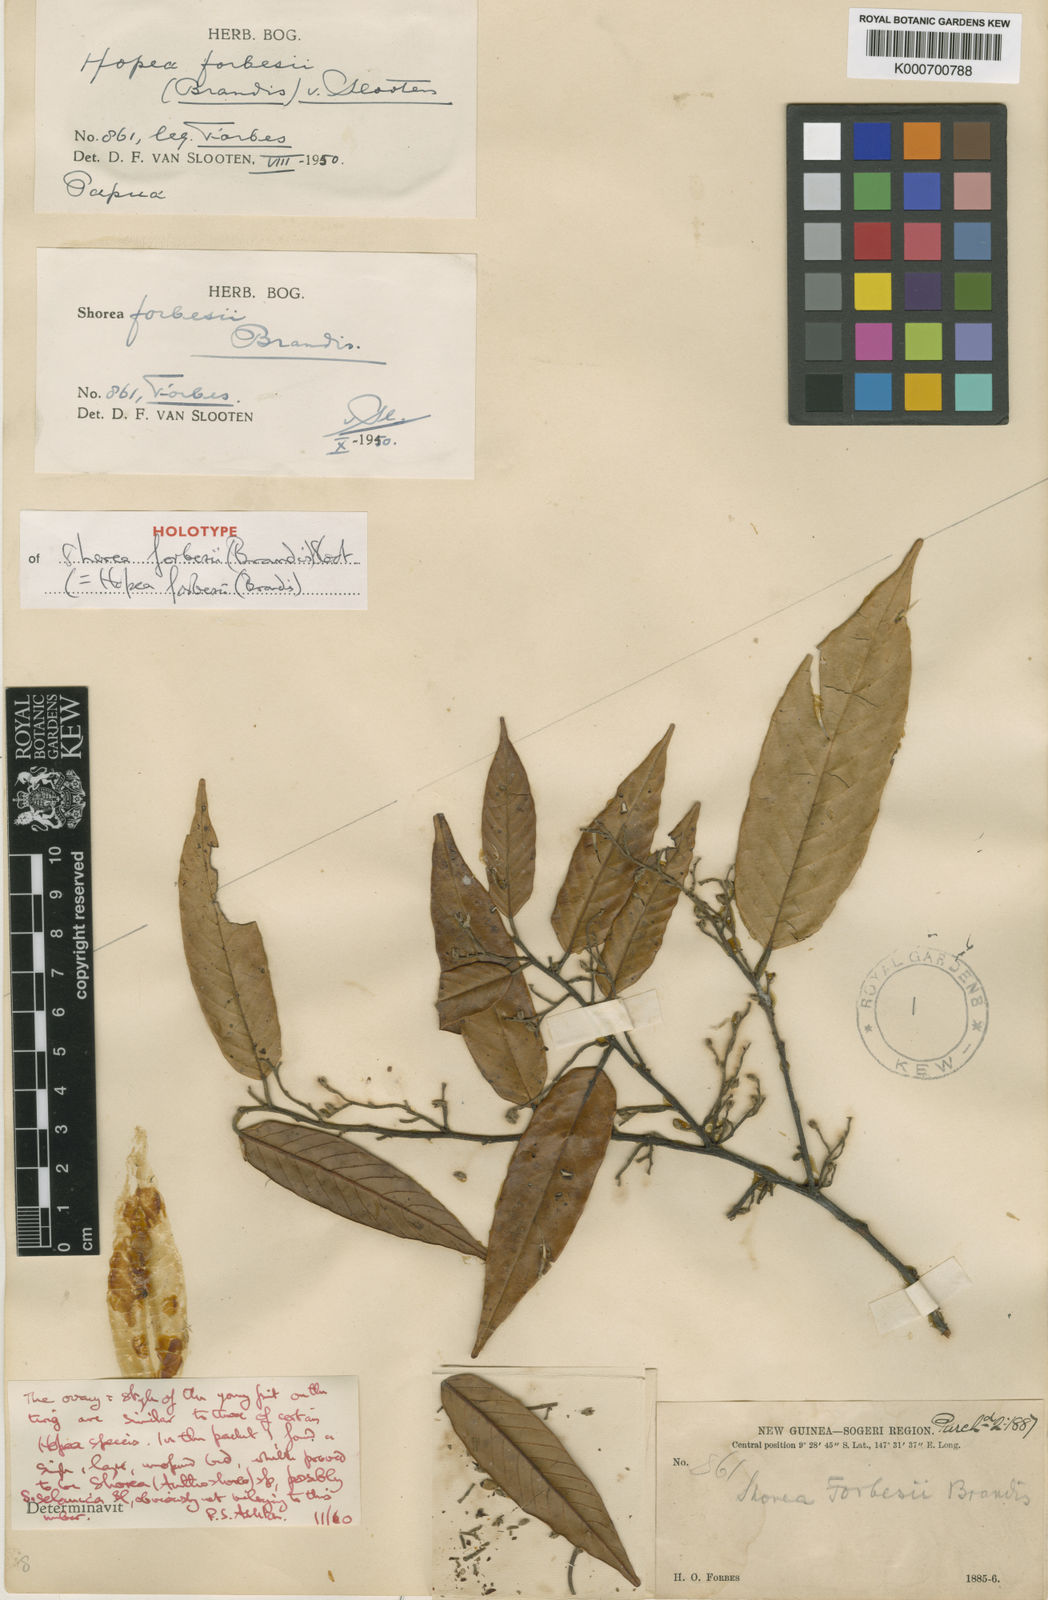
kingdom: Plantae
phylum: Tracheophyta
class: Magnoliopsida
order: Malvales
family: Dipterocarpaceae
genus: Hopea
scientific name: Hopea forbesii
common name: Giam
